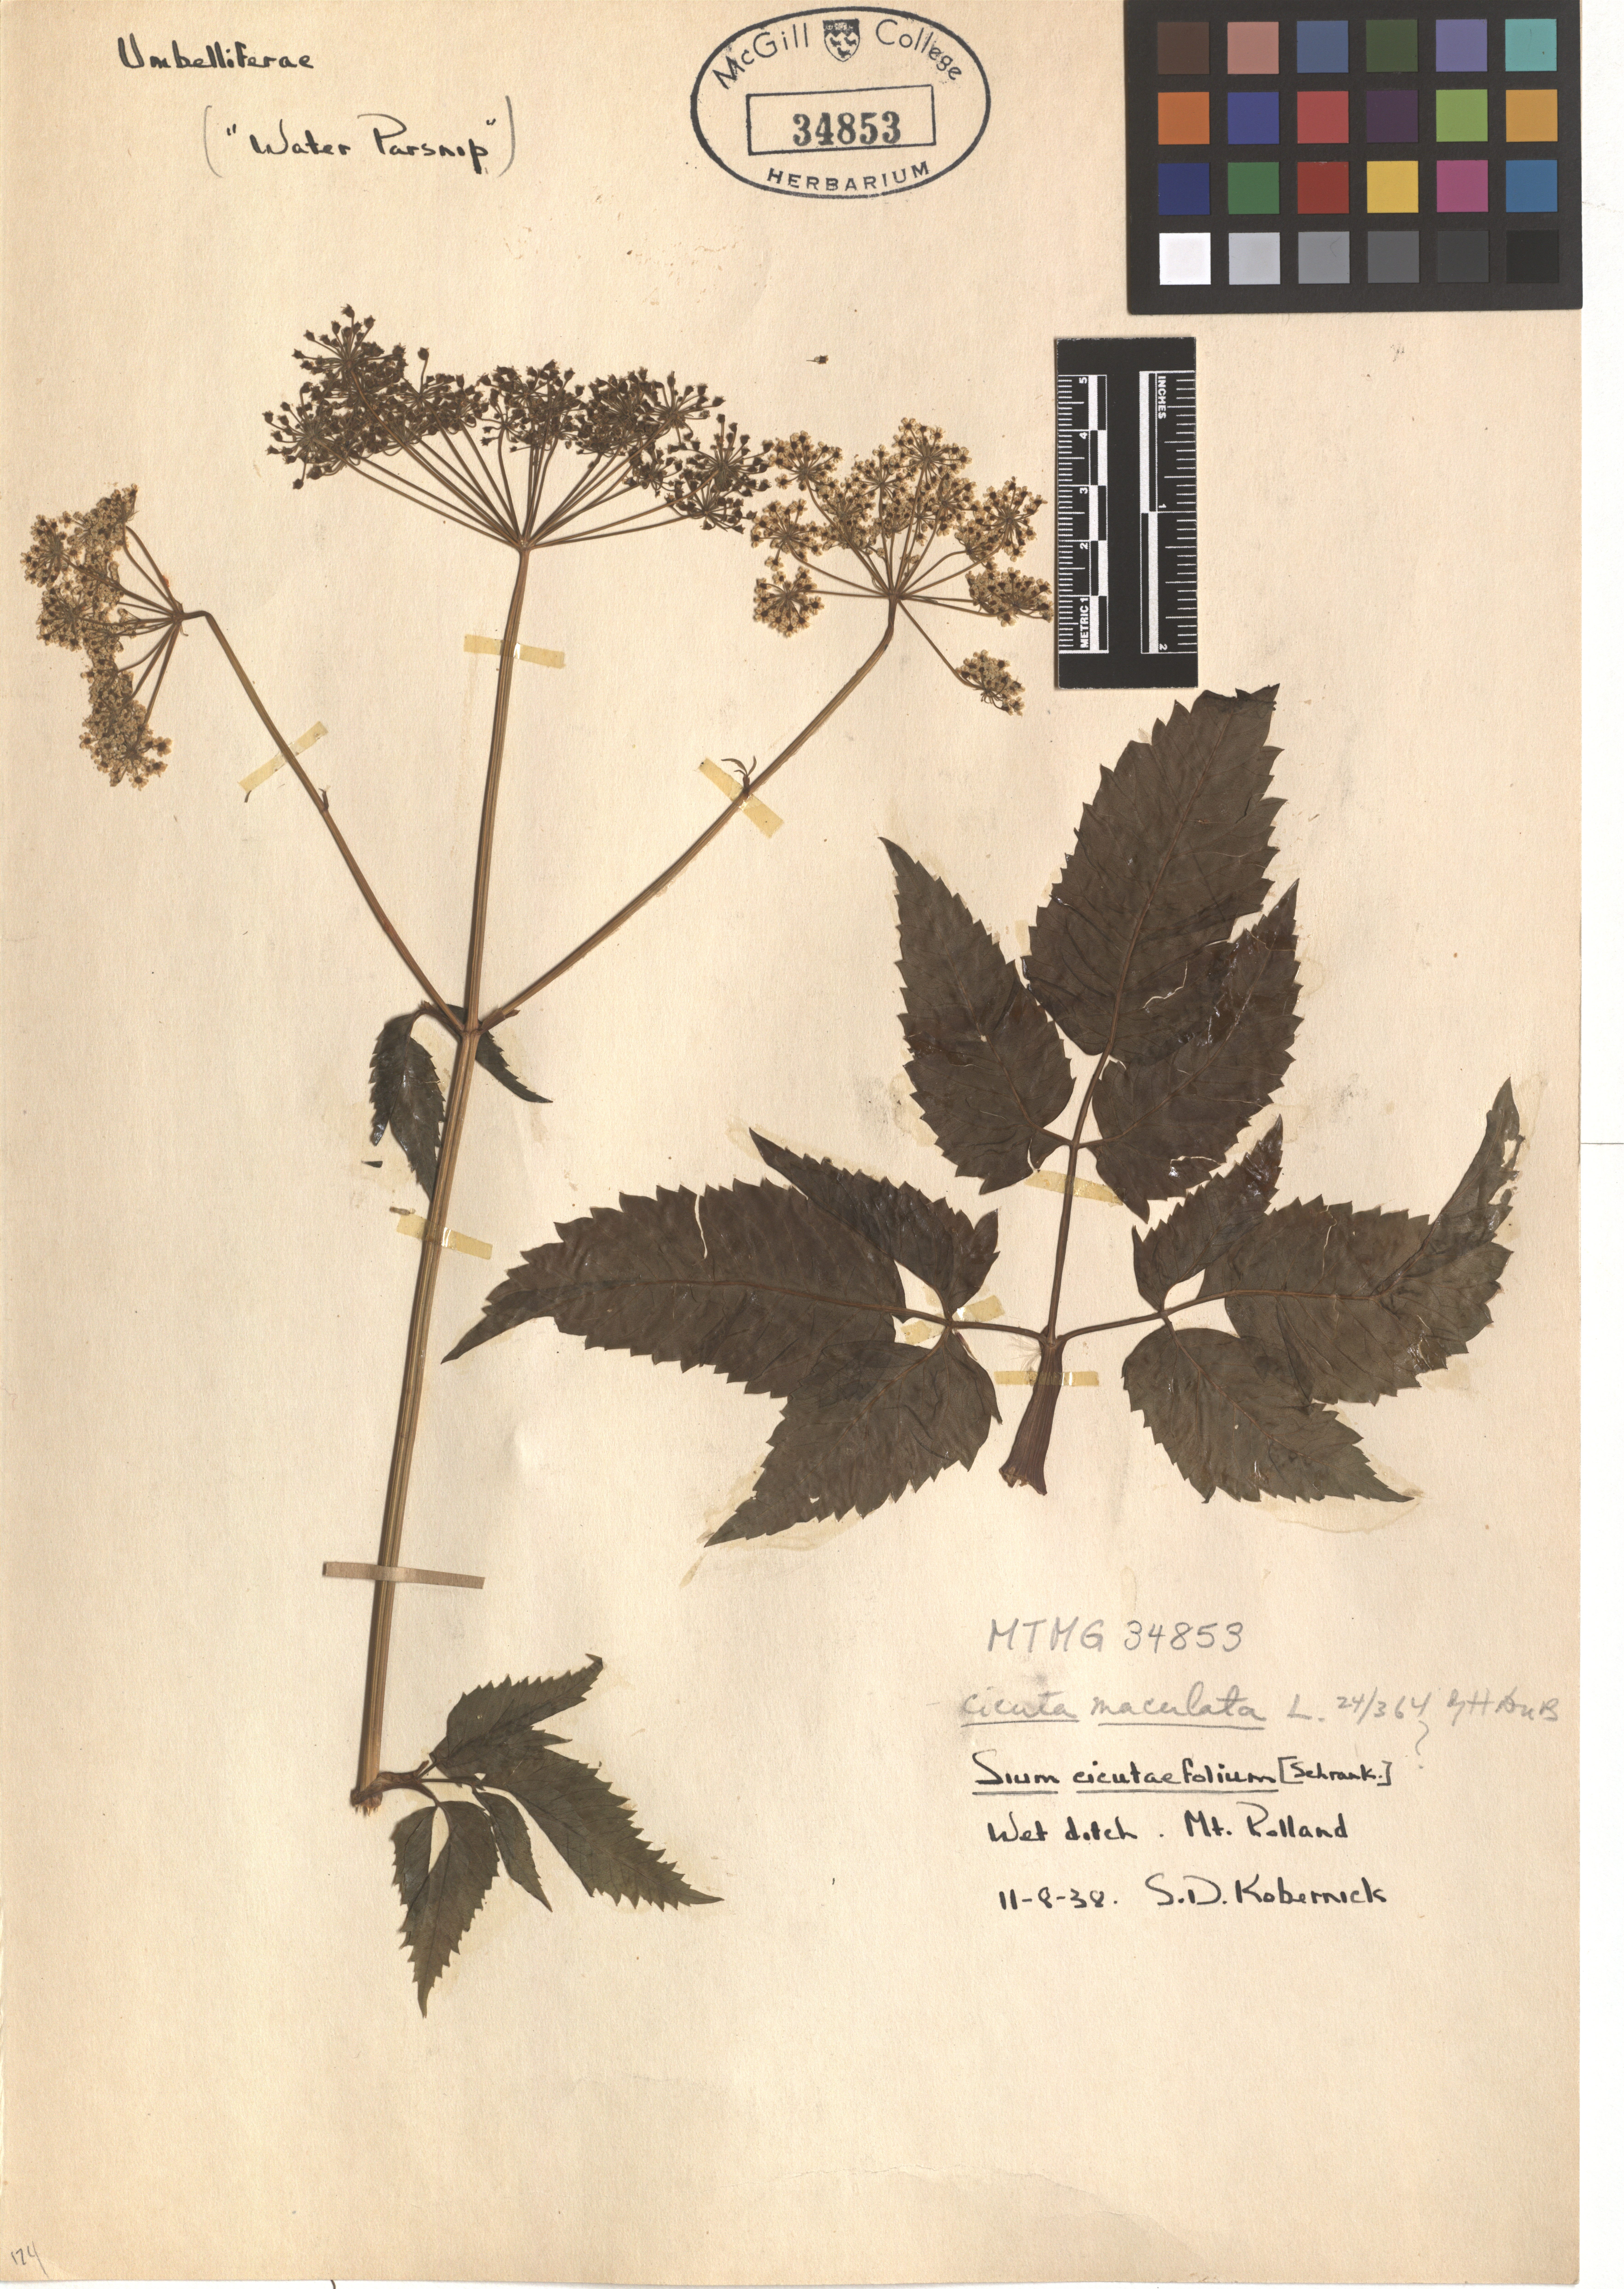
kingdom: Plantae
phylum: Tracheophyta
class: Magnoliopsida
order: Apiales
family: Apiaceae
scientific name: Apiaceae
